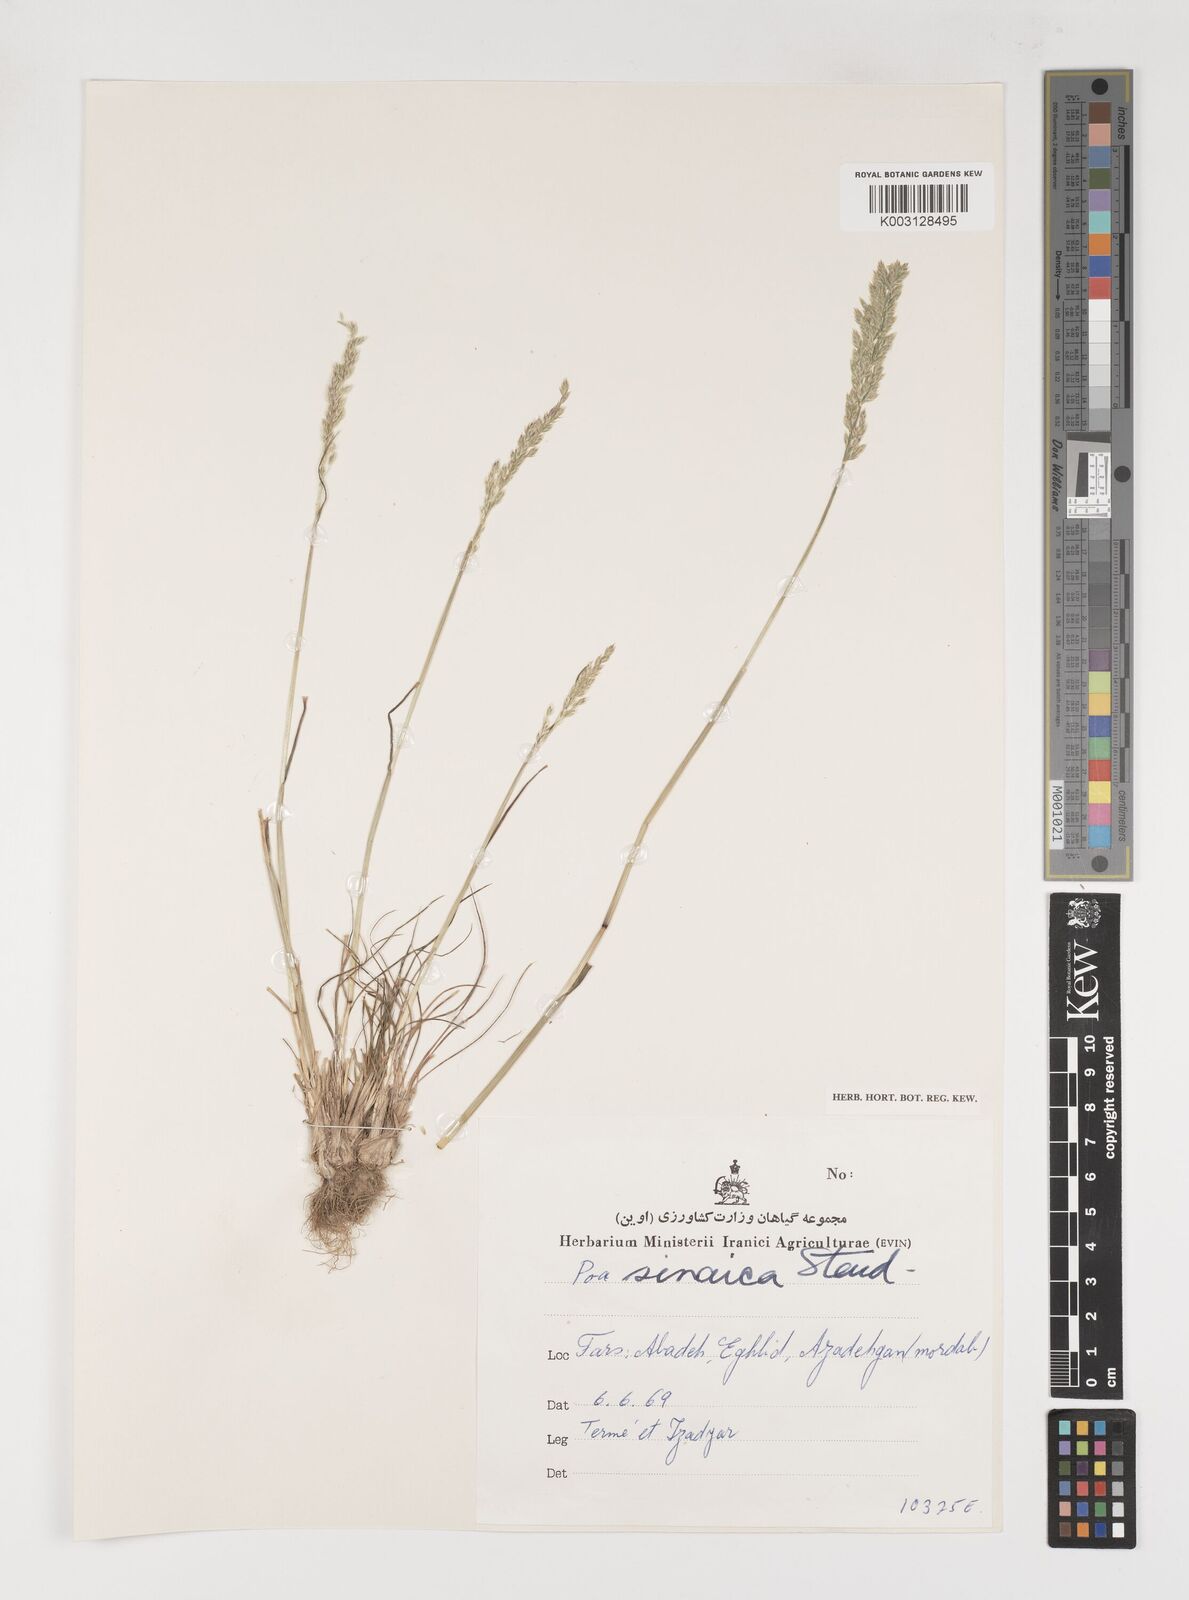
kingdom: Plantae
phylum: Tracheophyta
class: Liliopsida
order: Poales
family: Poaceae
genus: Poa
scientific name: Poa sinaica
